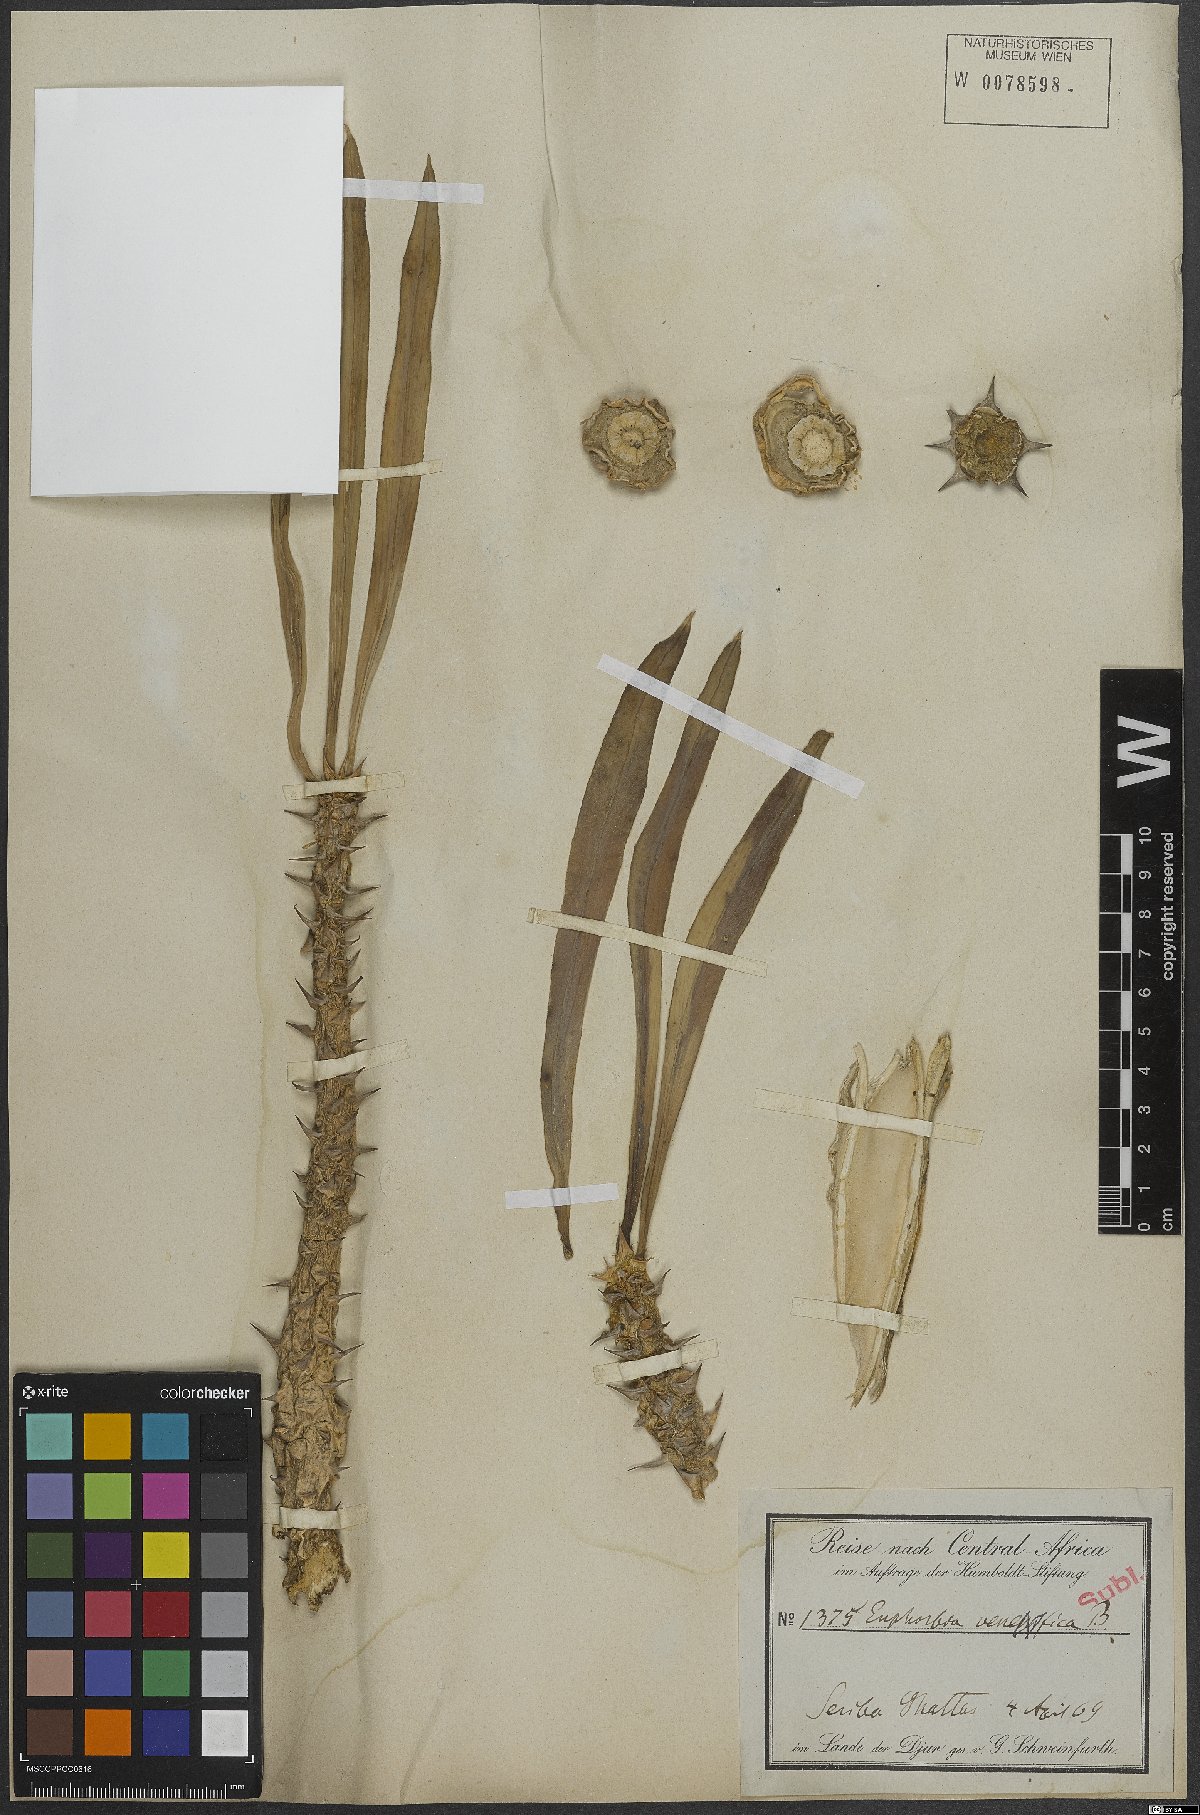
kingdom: Plantae
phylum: Tracheophyta
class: Magnoliopsida
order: Malpighiales
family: Euphorbiaceae
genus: Euphorbia
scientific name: Euphorbia
